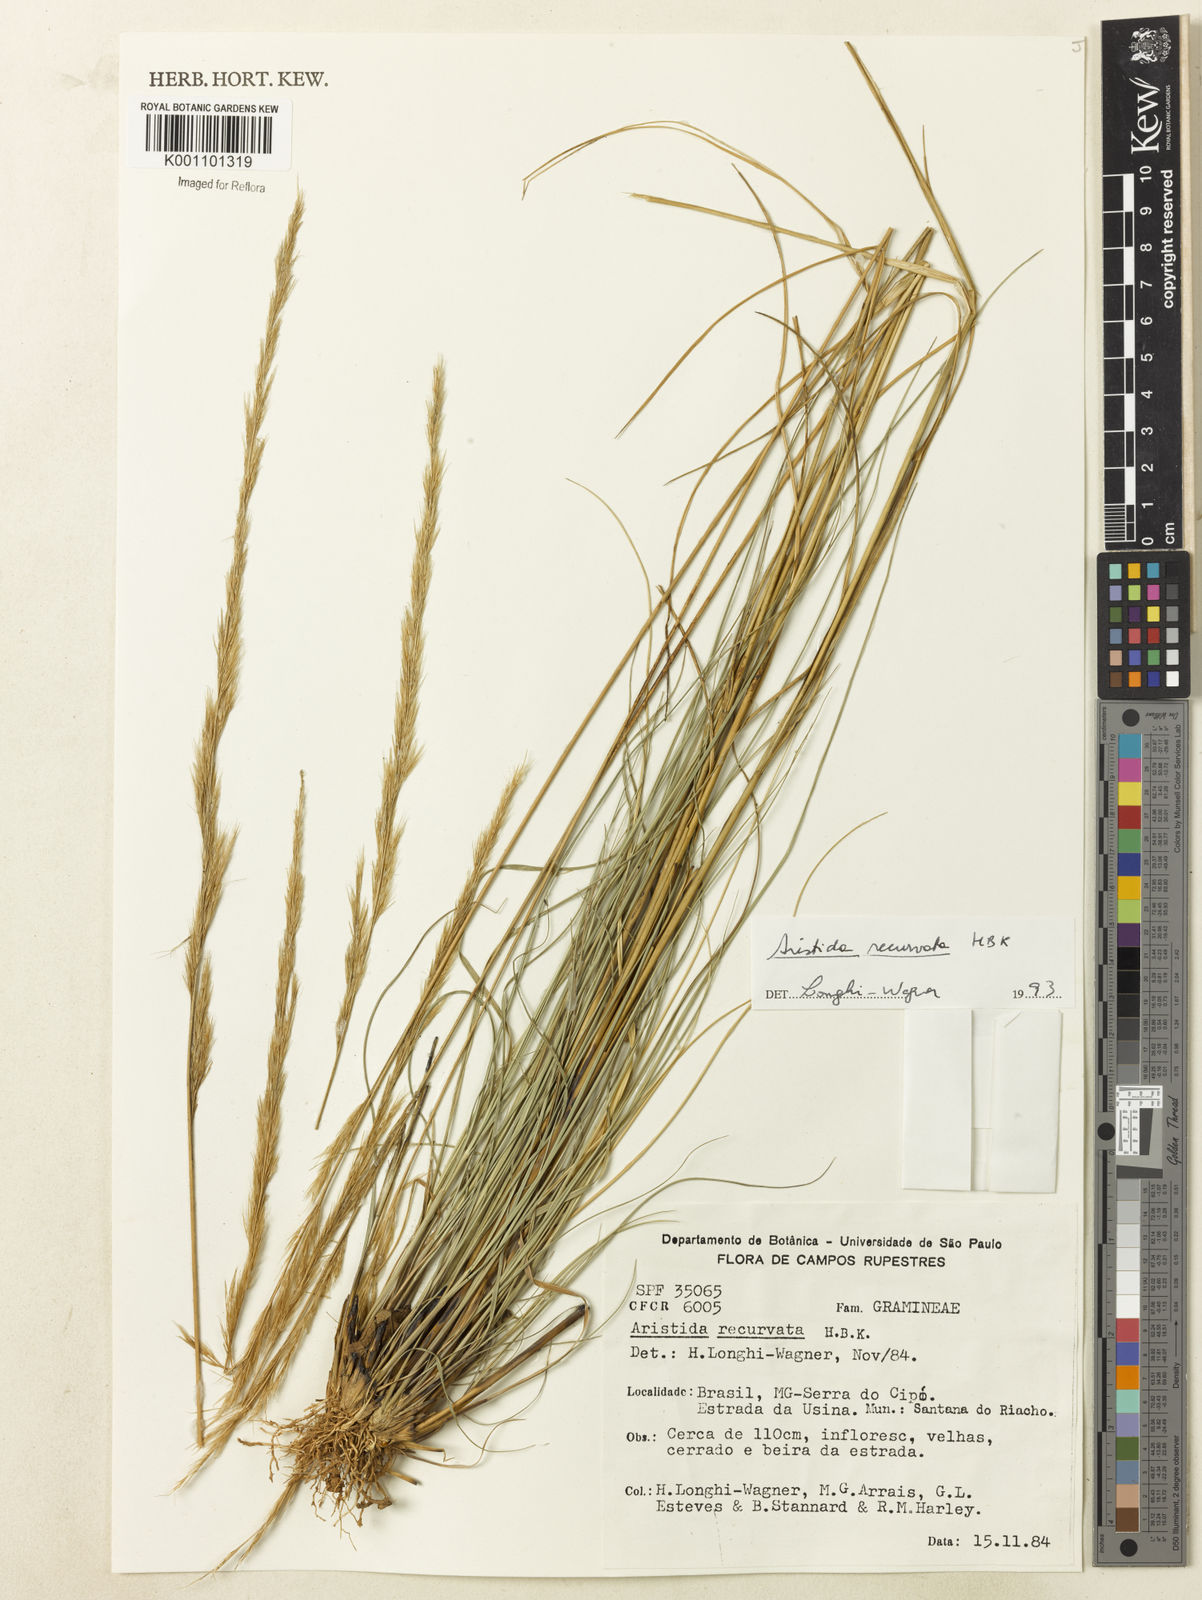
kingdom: Plantae
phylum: Tracheophyta
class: Liliopsida
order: Poales
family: Poaceae
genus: Aristida
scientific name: Aristida recurvata
